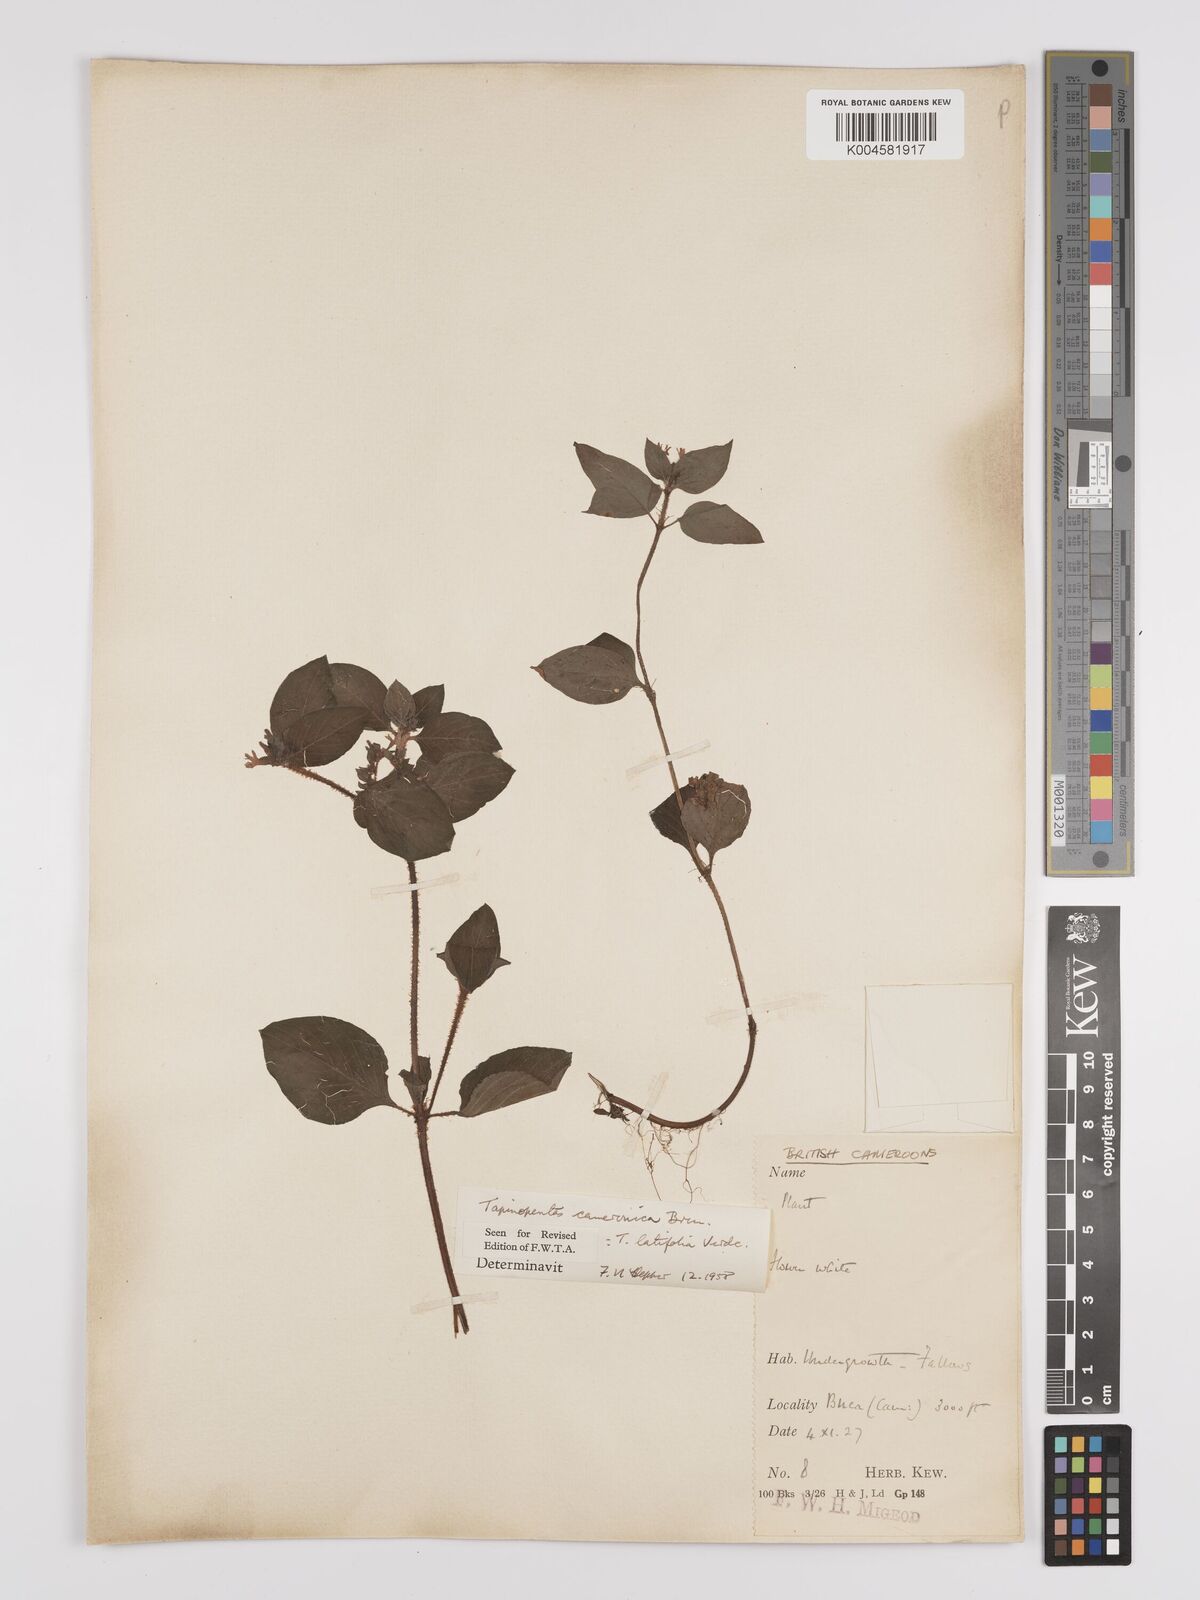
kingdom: Plantae
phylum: Tracheophyta
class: Magnoliopsida
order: Gentianales
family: Rubiaceae
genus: Otomeria
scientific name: Otomeria cameronica
